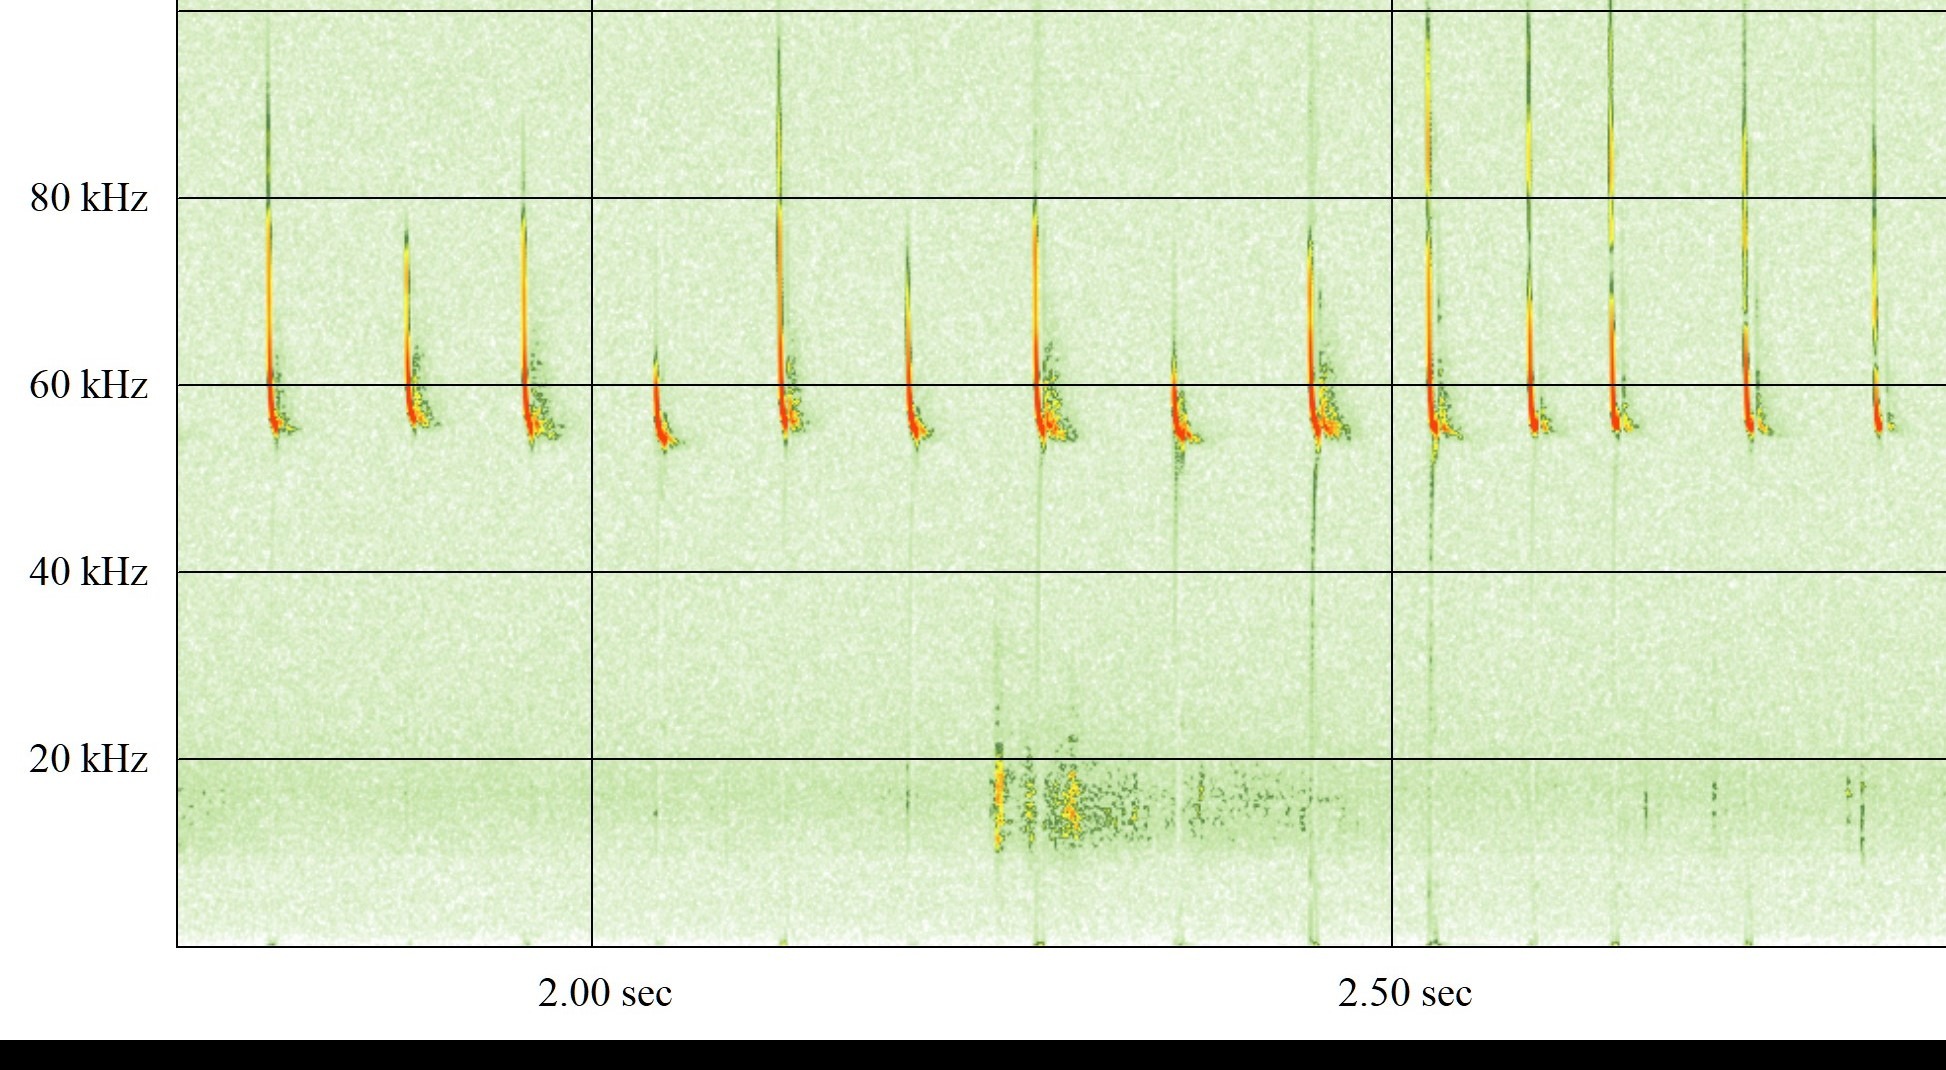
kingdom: Animalia
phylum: Chordata
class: Mammalia
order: Chiroptera
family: Vespertilionidae
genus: Pipistrellus
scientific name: Pipistrellus pygmaeus
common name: Dværgflagermus
